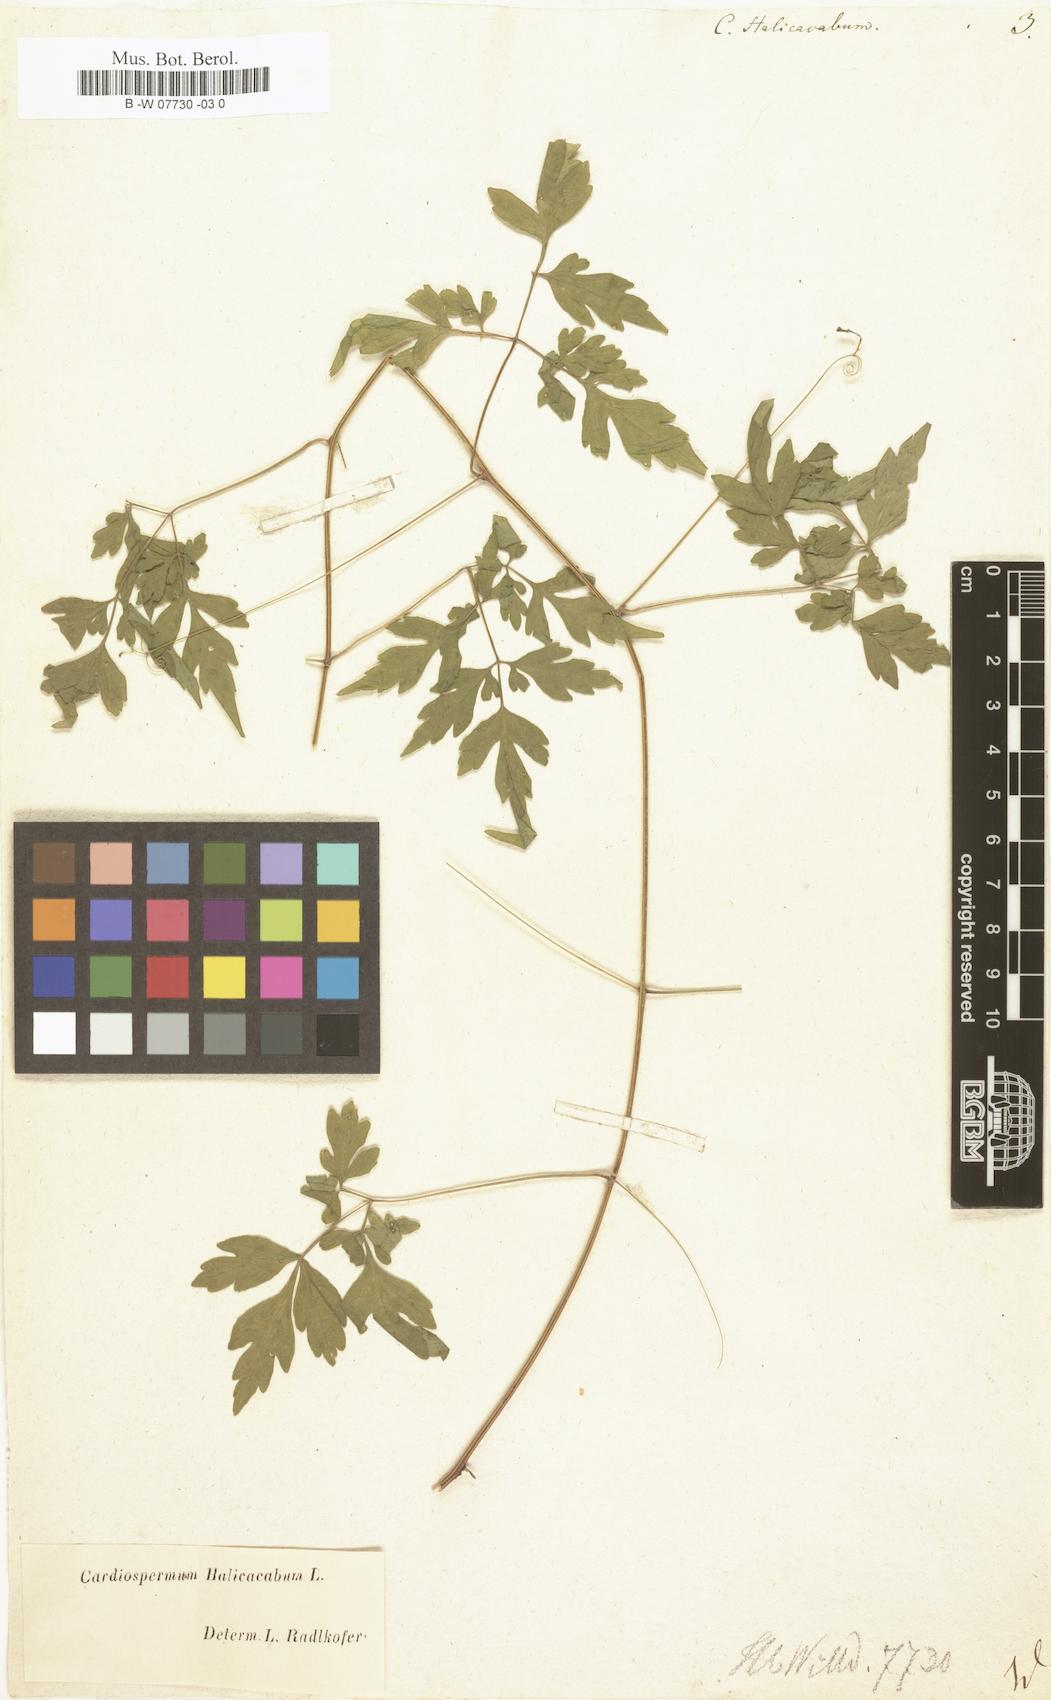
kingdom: Plantae
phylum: Tracheophyta
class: Magnoliopsida
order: Sapindales
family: Sapindaceae
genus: Cardiospermum
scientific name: Cardiospermum halicacabum
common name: Balloon vine
